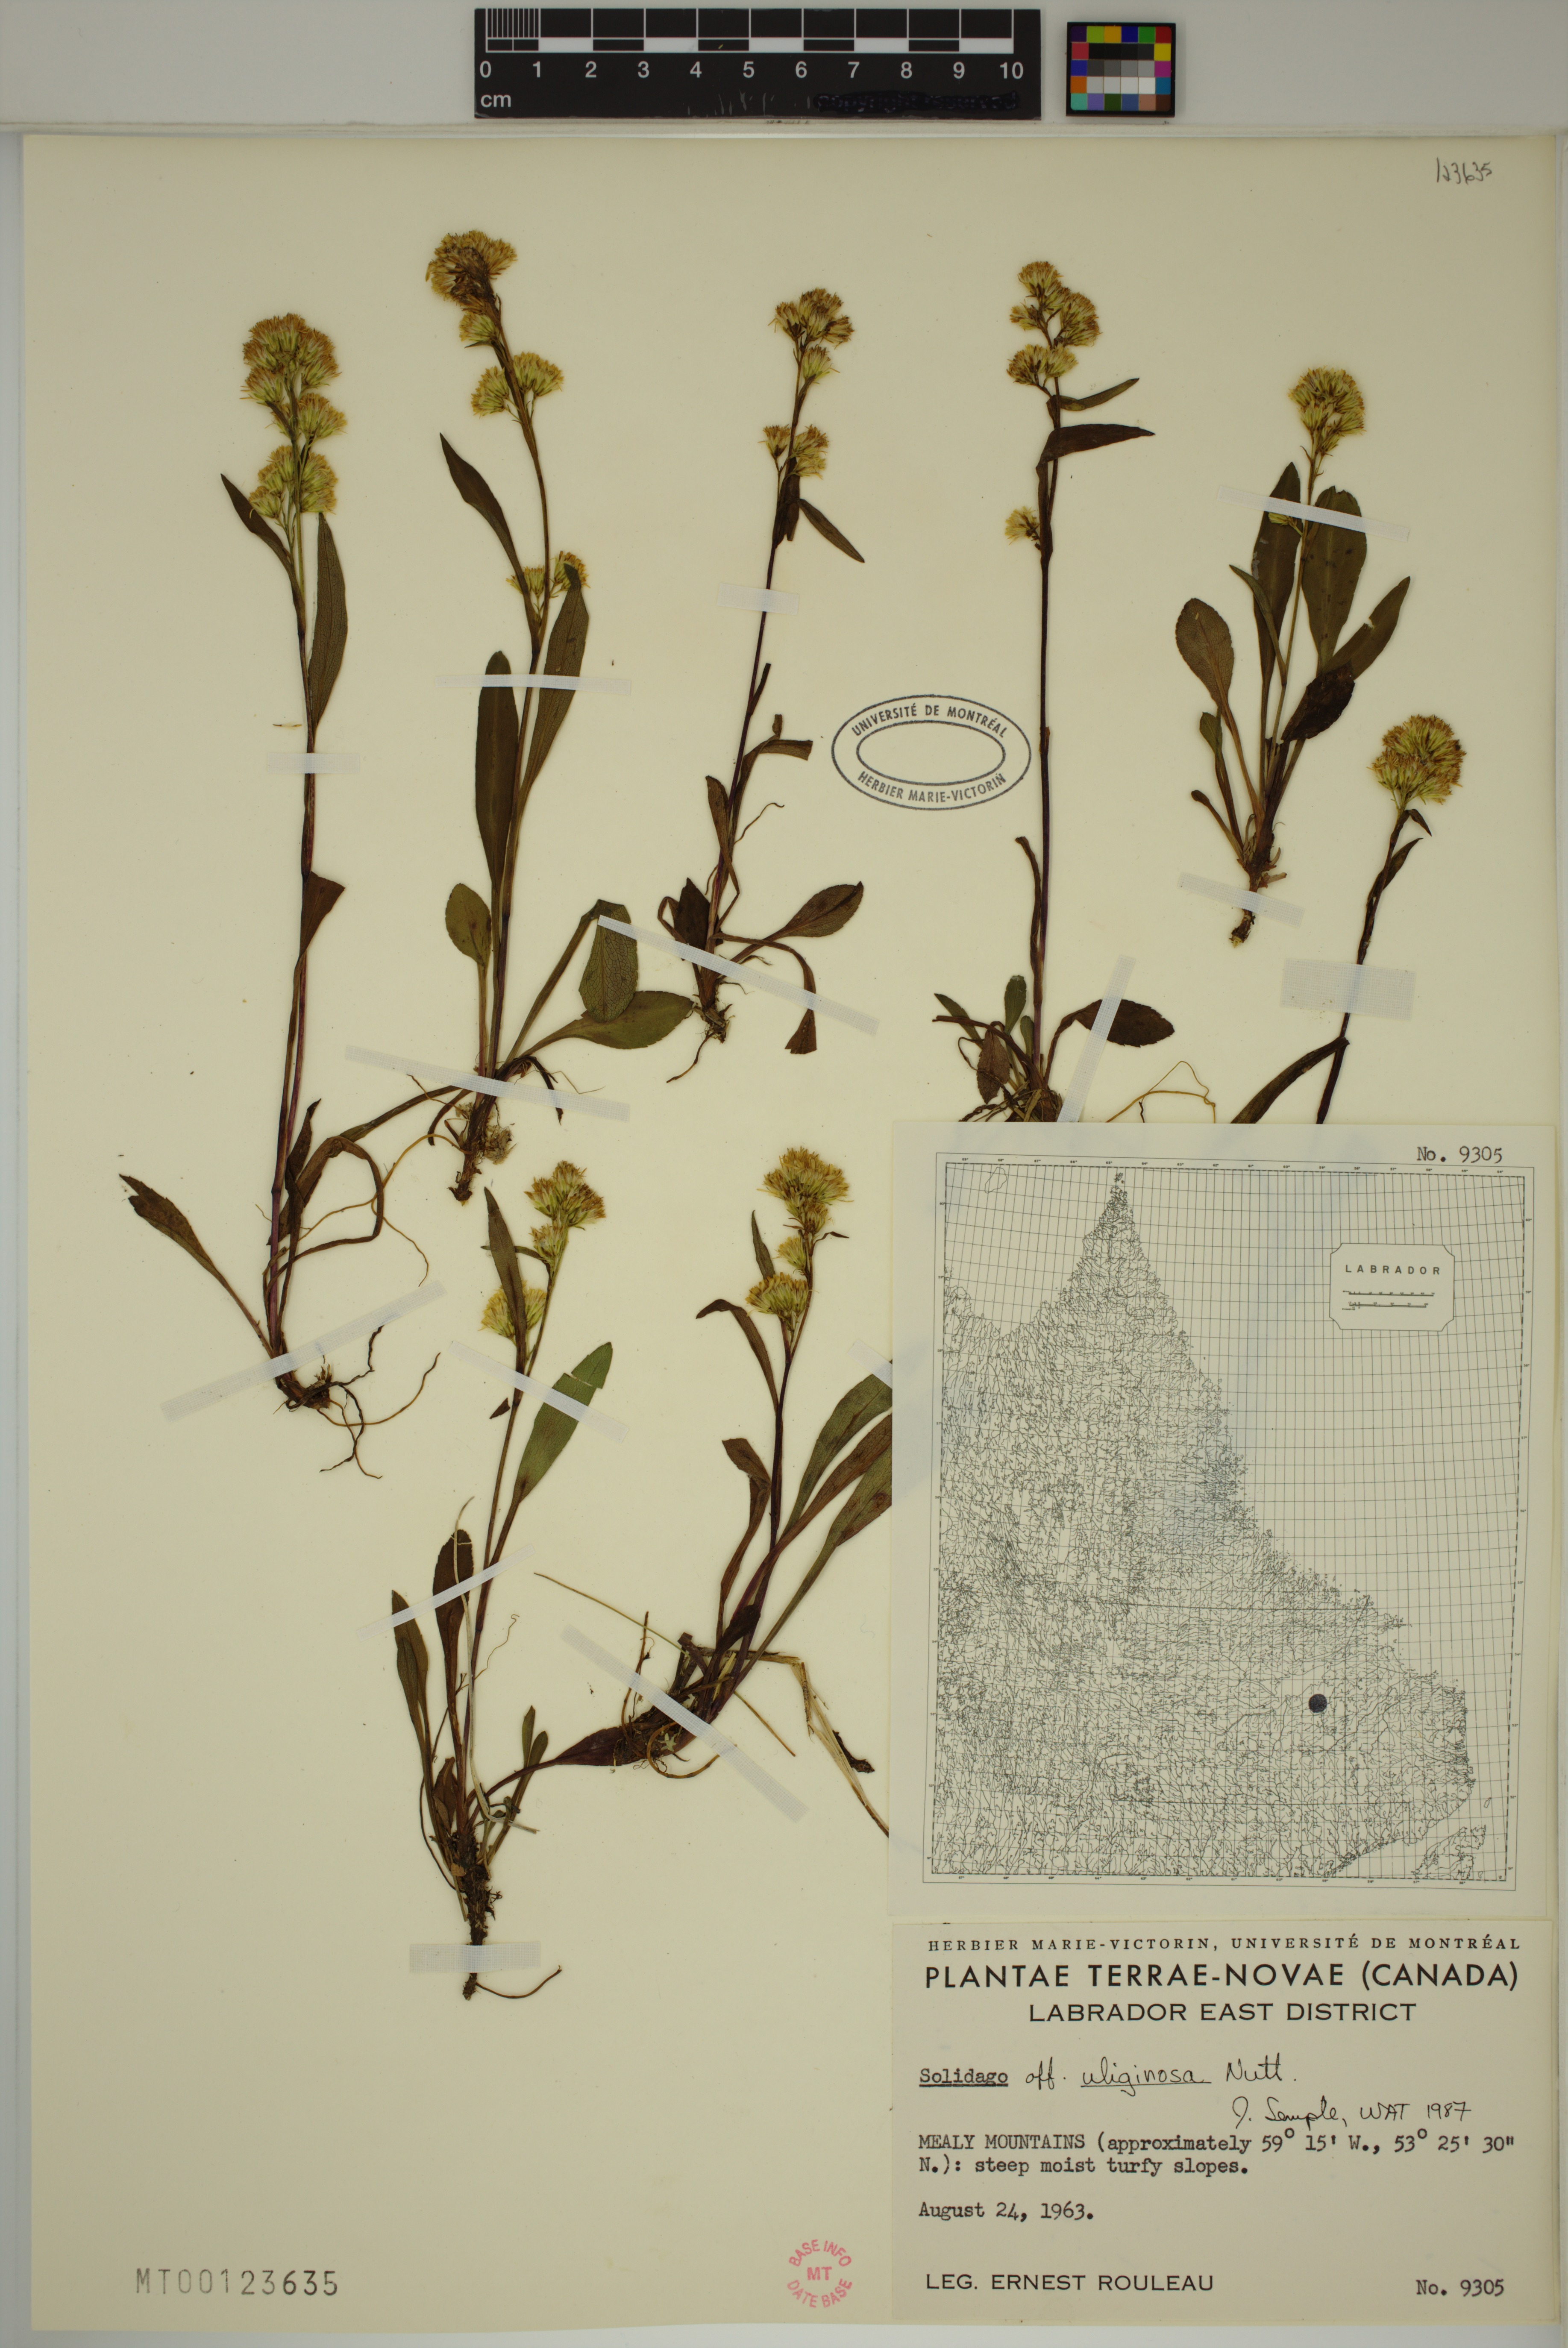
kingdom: Plantae
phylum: Tracheophyta
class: Magnoliopsida
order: Asterales
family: Asteraceae
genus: Solidago
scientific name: Solidago uliginosa
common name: Bog goldenrod
